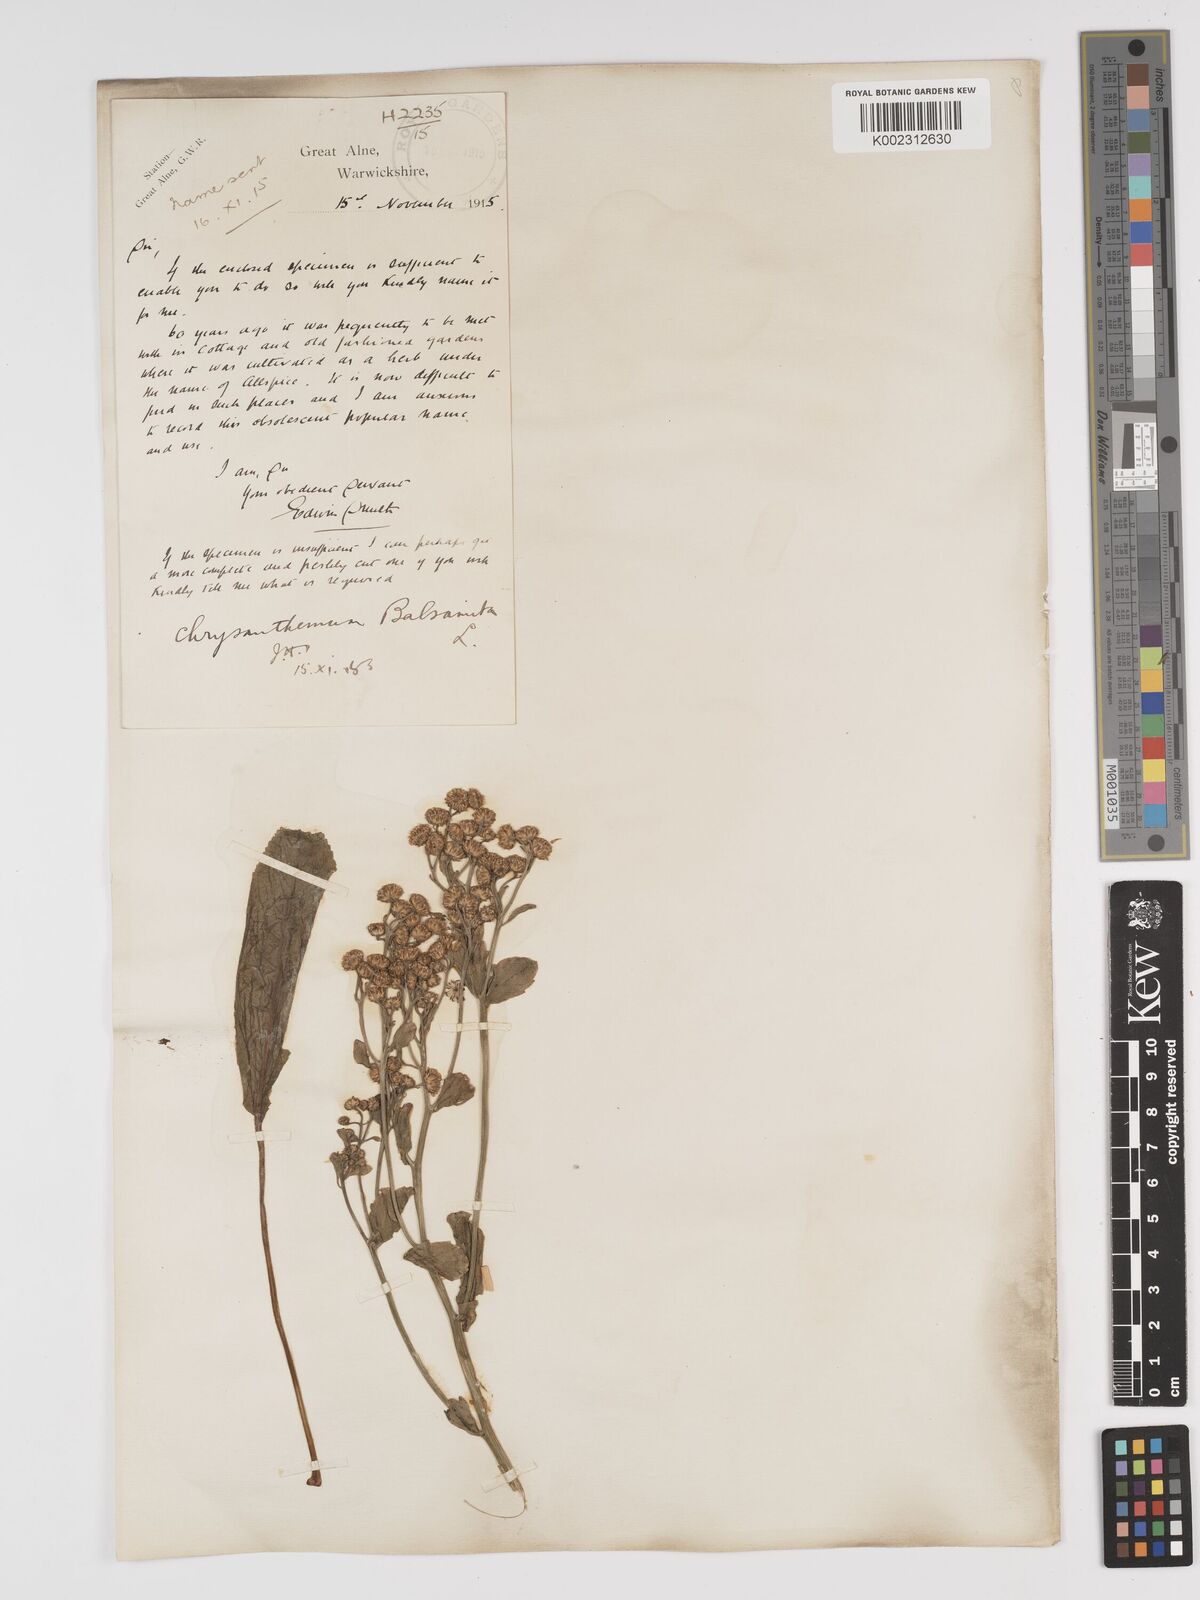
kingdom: Plantae
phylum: Tracheophyta
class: Magnoliopsida
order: Asterales
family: Asteraceae
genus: Tanacetum
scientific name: Tanacetum balsamita
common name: Costmary
